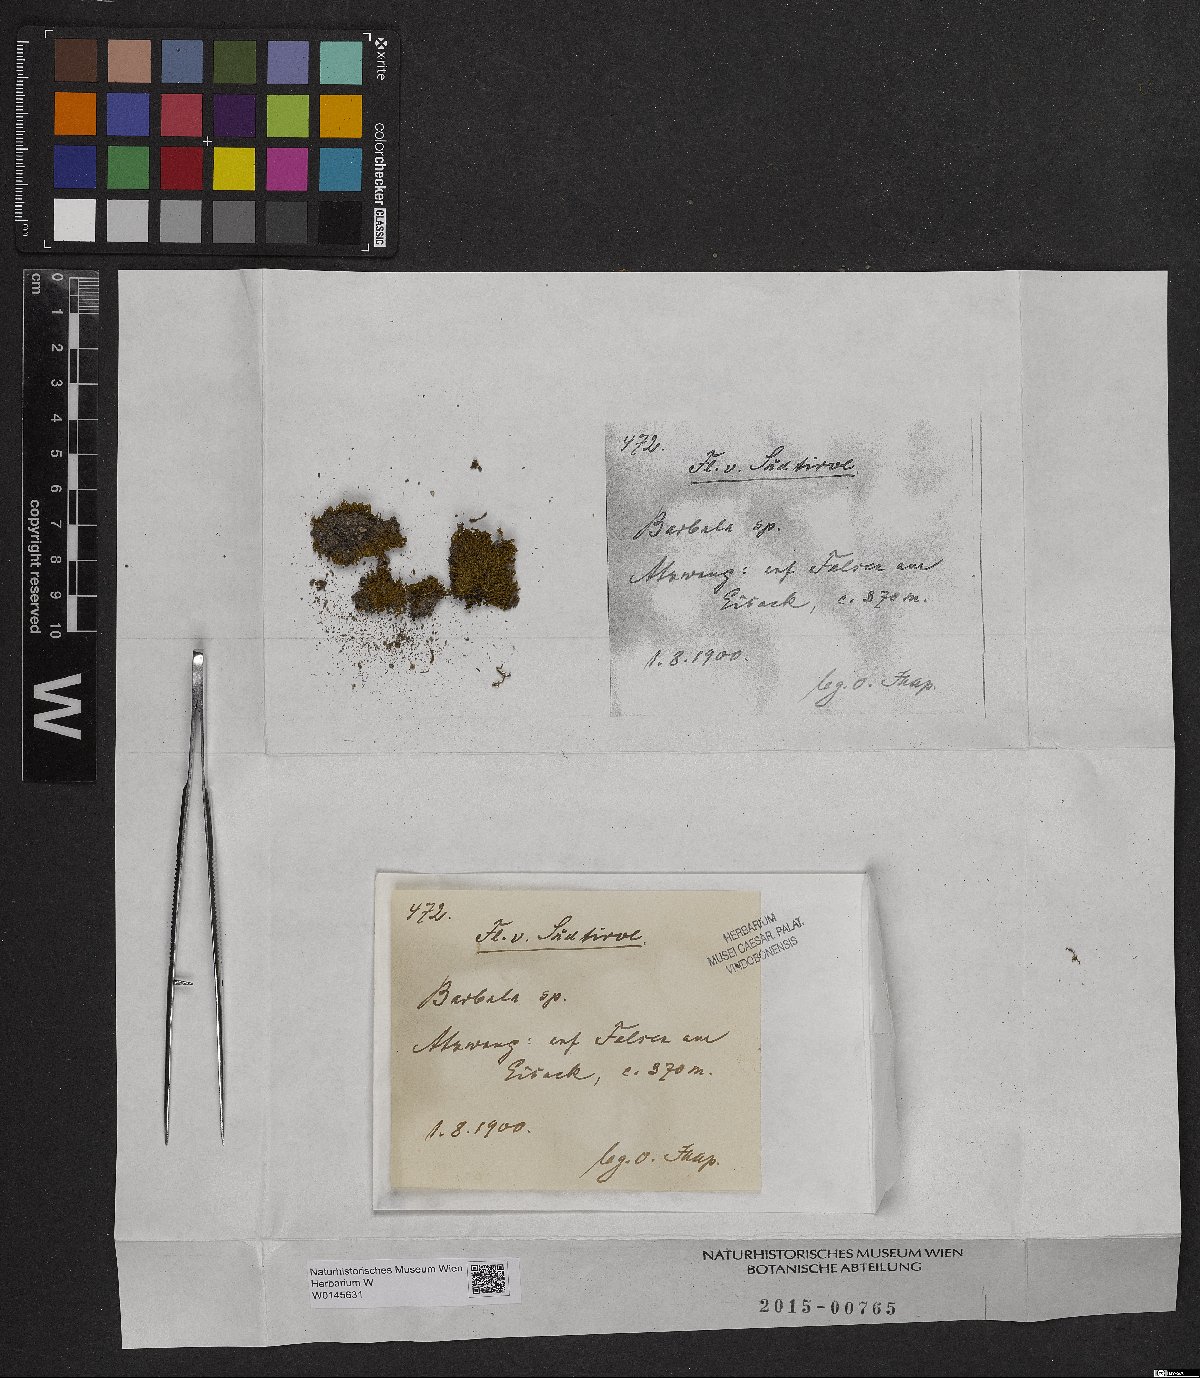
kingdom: Plantae
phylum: Bryophyta
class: Bryopsida
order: Pottiales
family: Pottiaceae
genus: Barbula
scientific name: Barbula
